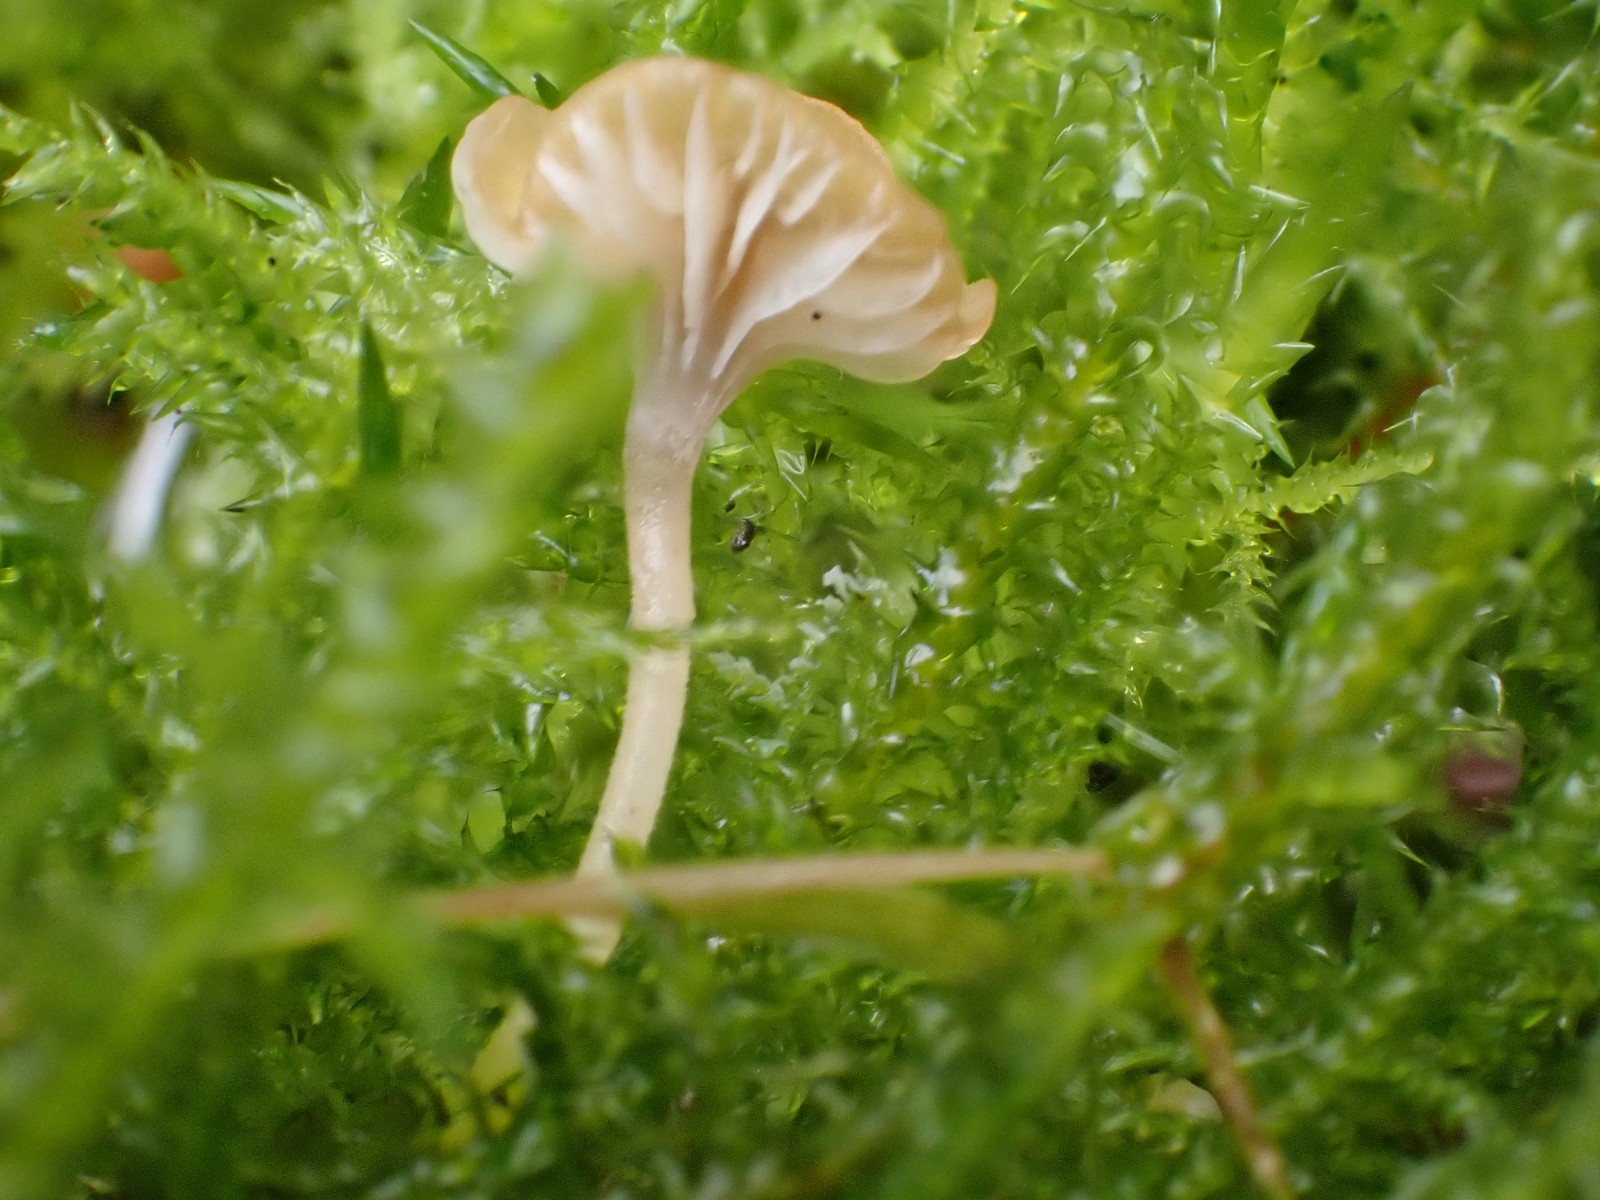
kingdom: Fungi
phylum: Basidiomycota
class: Agaricomycetes
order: Hymenochaetales
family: Rickenellaceae
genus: Rickenella
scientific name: Rickenella swartzii
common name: finstokket mosnavlehat
